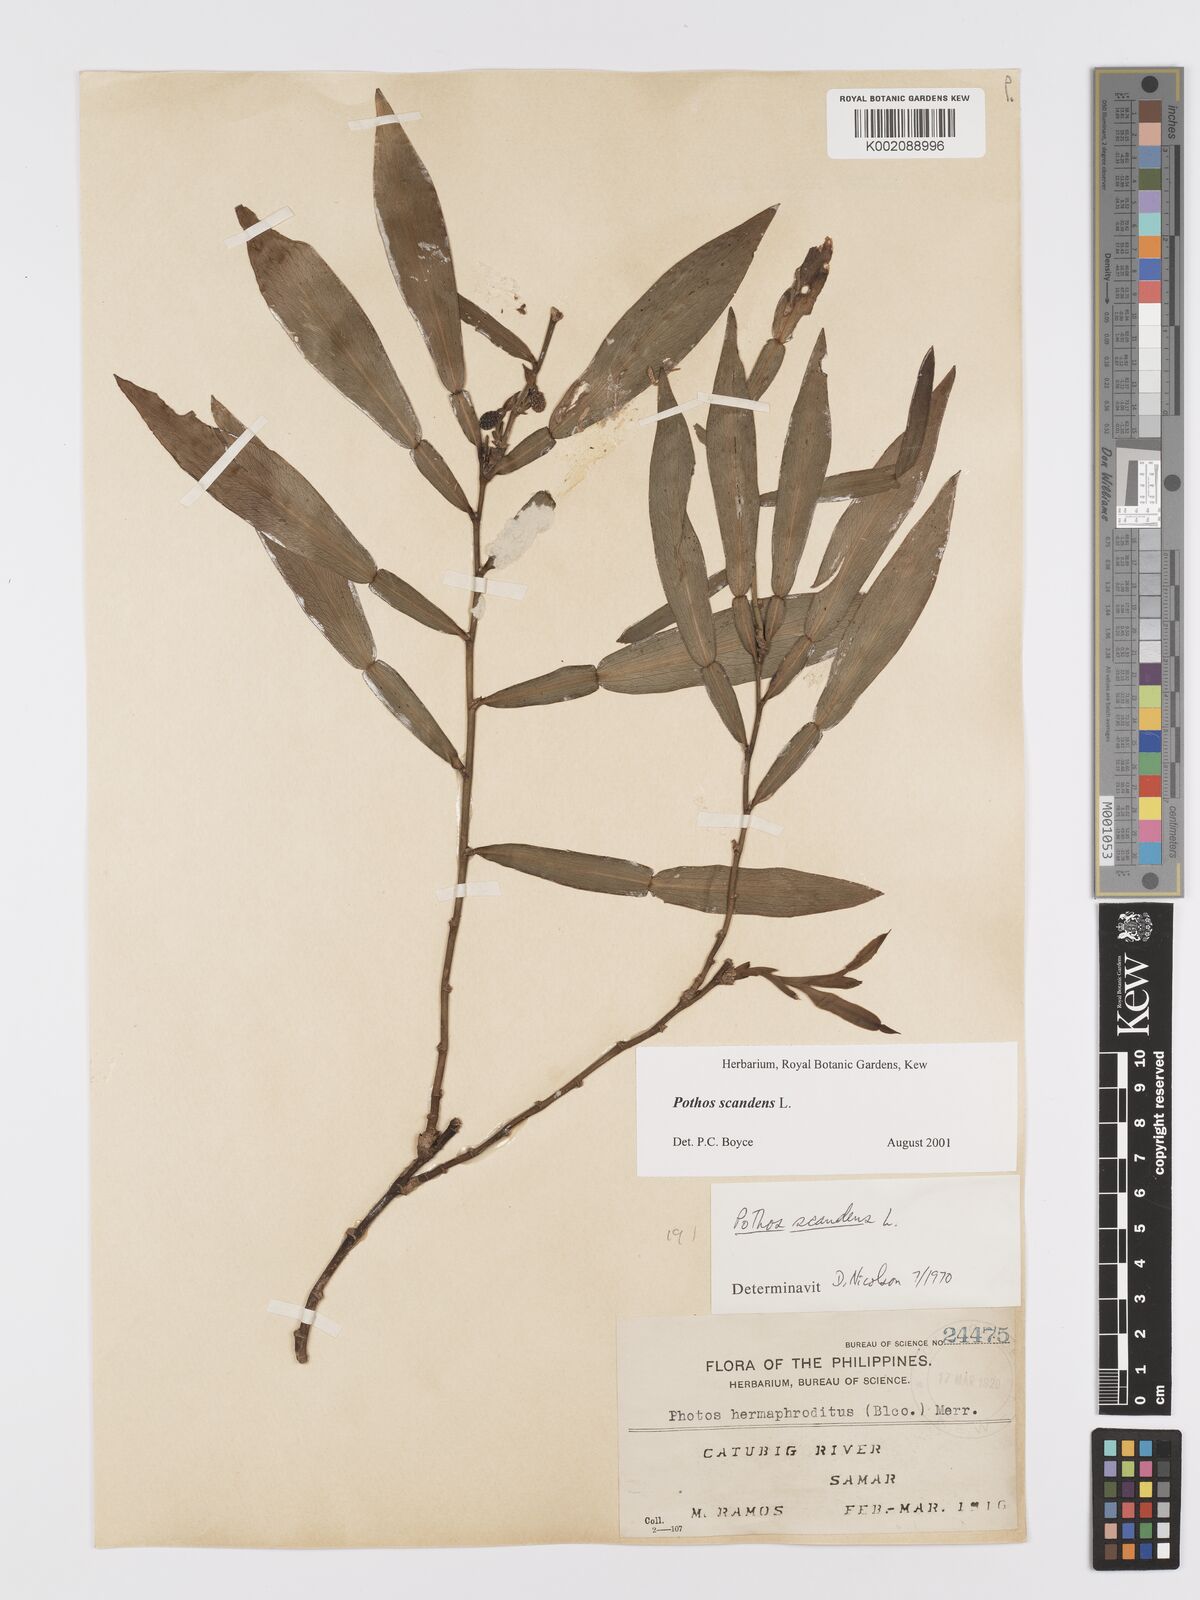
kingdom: Plantae
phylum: Tracheophyta
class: Liliopsida
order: Alismatales
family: Araceae
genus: Pothos
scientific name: Pothos scandens
